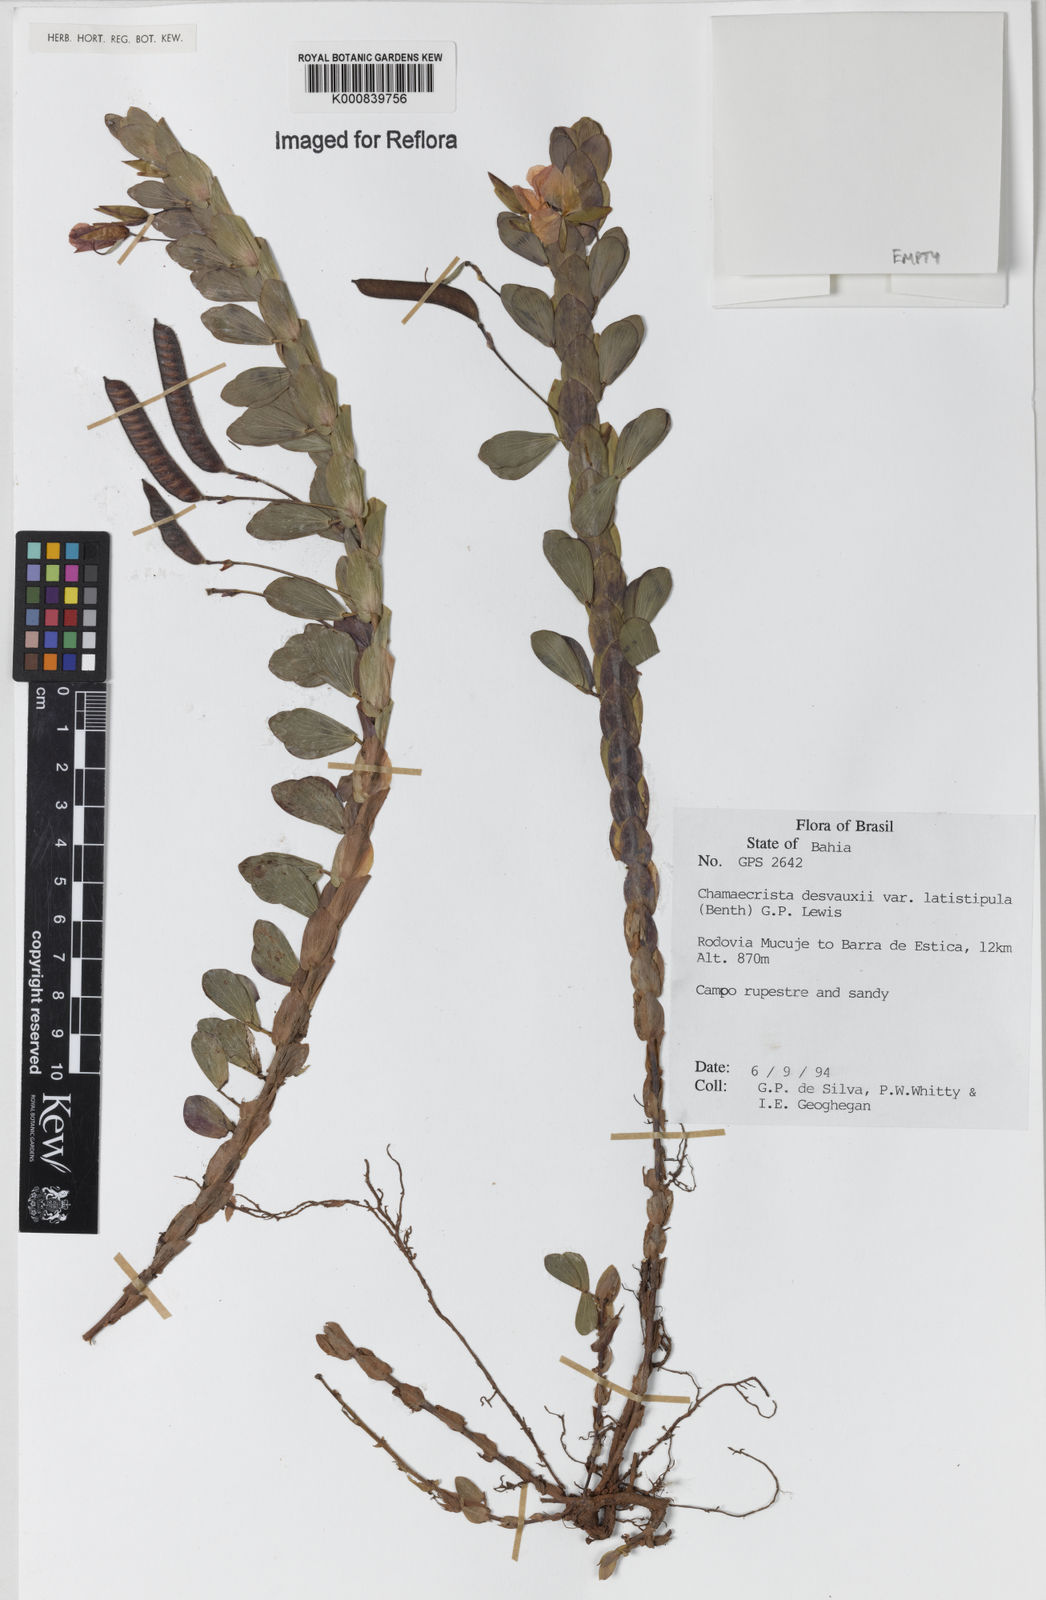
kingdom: Plantae
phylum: Tracheophyta
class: Magnoliopsida
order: Fabales
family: Fabaceae
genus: Chamaecrista
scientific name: Chamaecrista desvauxii
